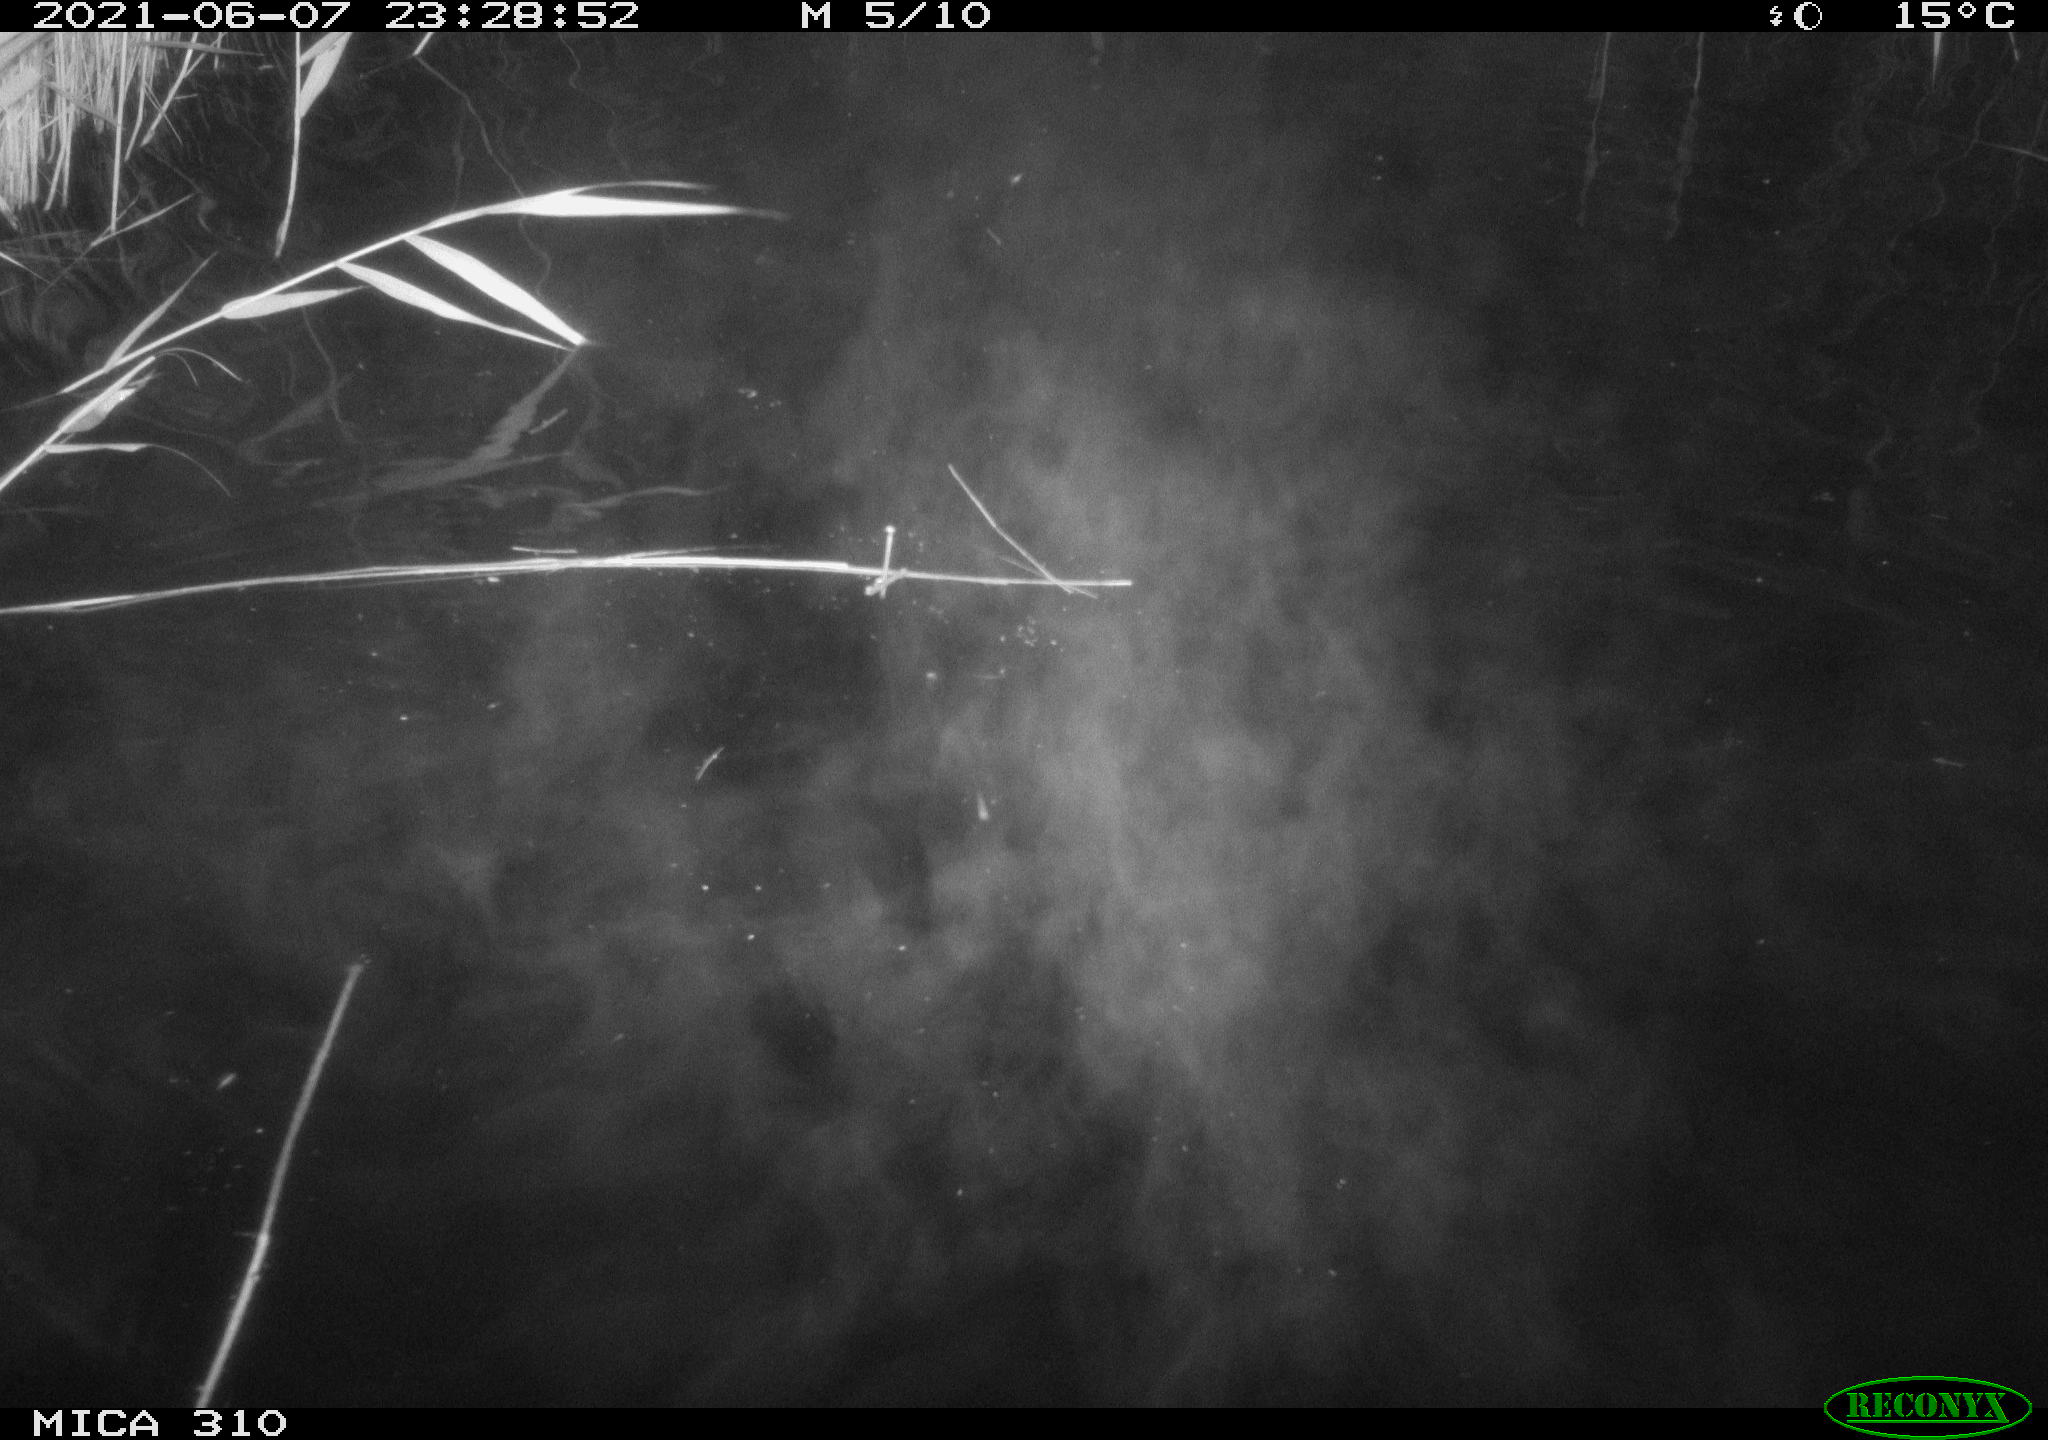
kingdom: Animalia
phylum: Chordata
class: Mammalia
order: Rodentia
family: Cricetidae
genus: Ondatra
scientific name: Ondatra zibethicus
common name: Muskrat
